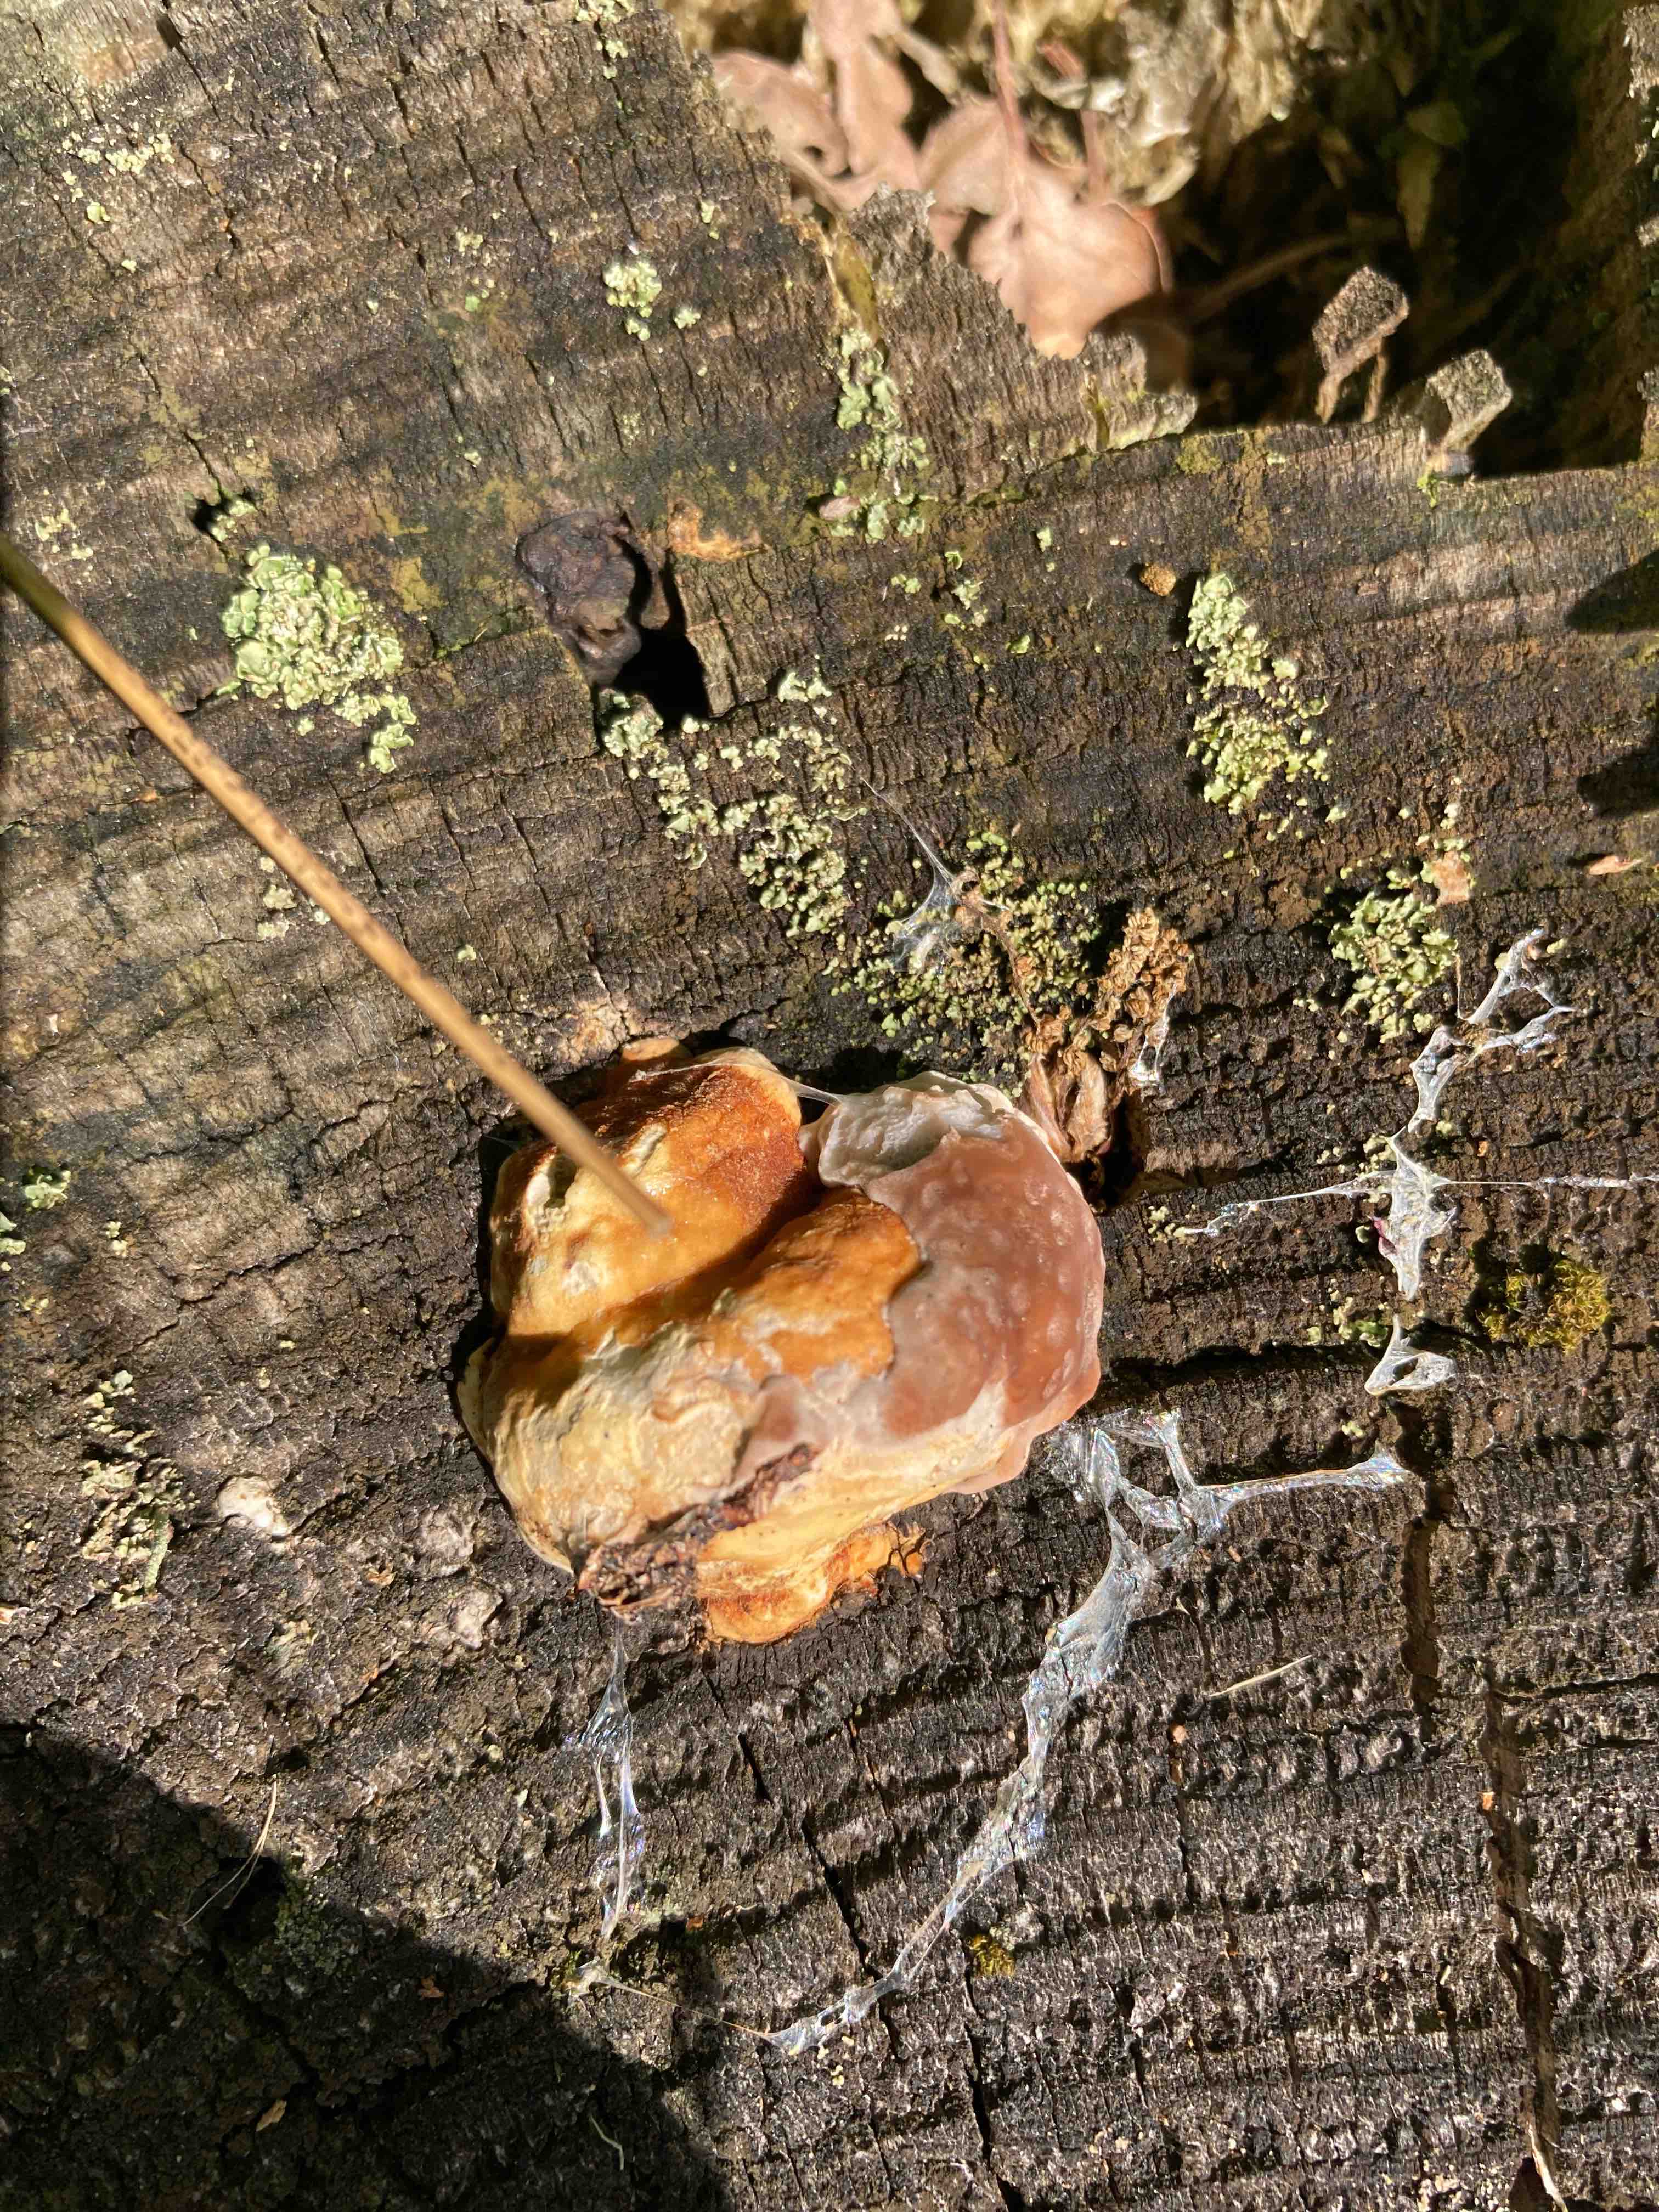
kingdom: Fungi
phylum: Basidiomycota
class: Agaricomycetes
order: Polyporales
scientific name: Polyporales
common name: poresvampordenen
